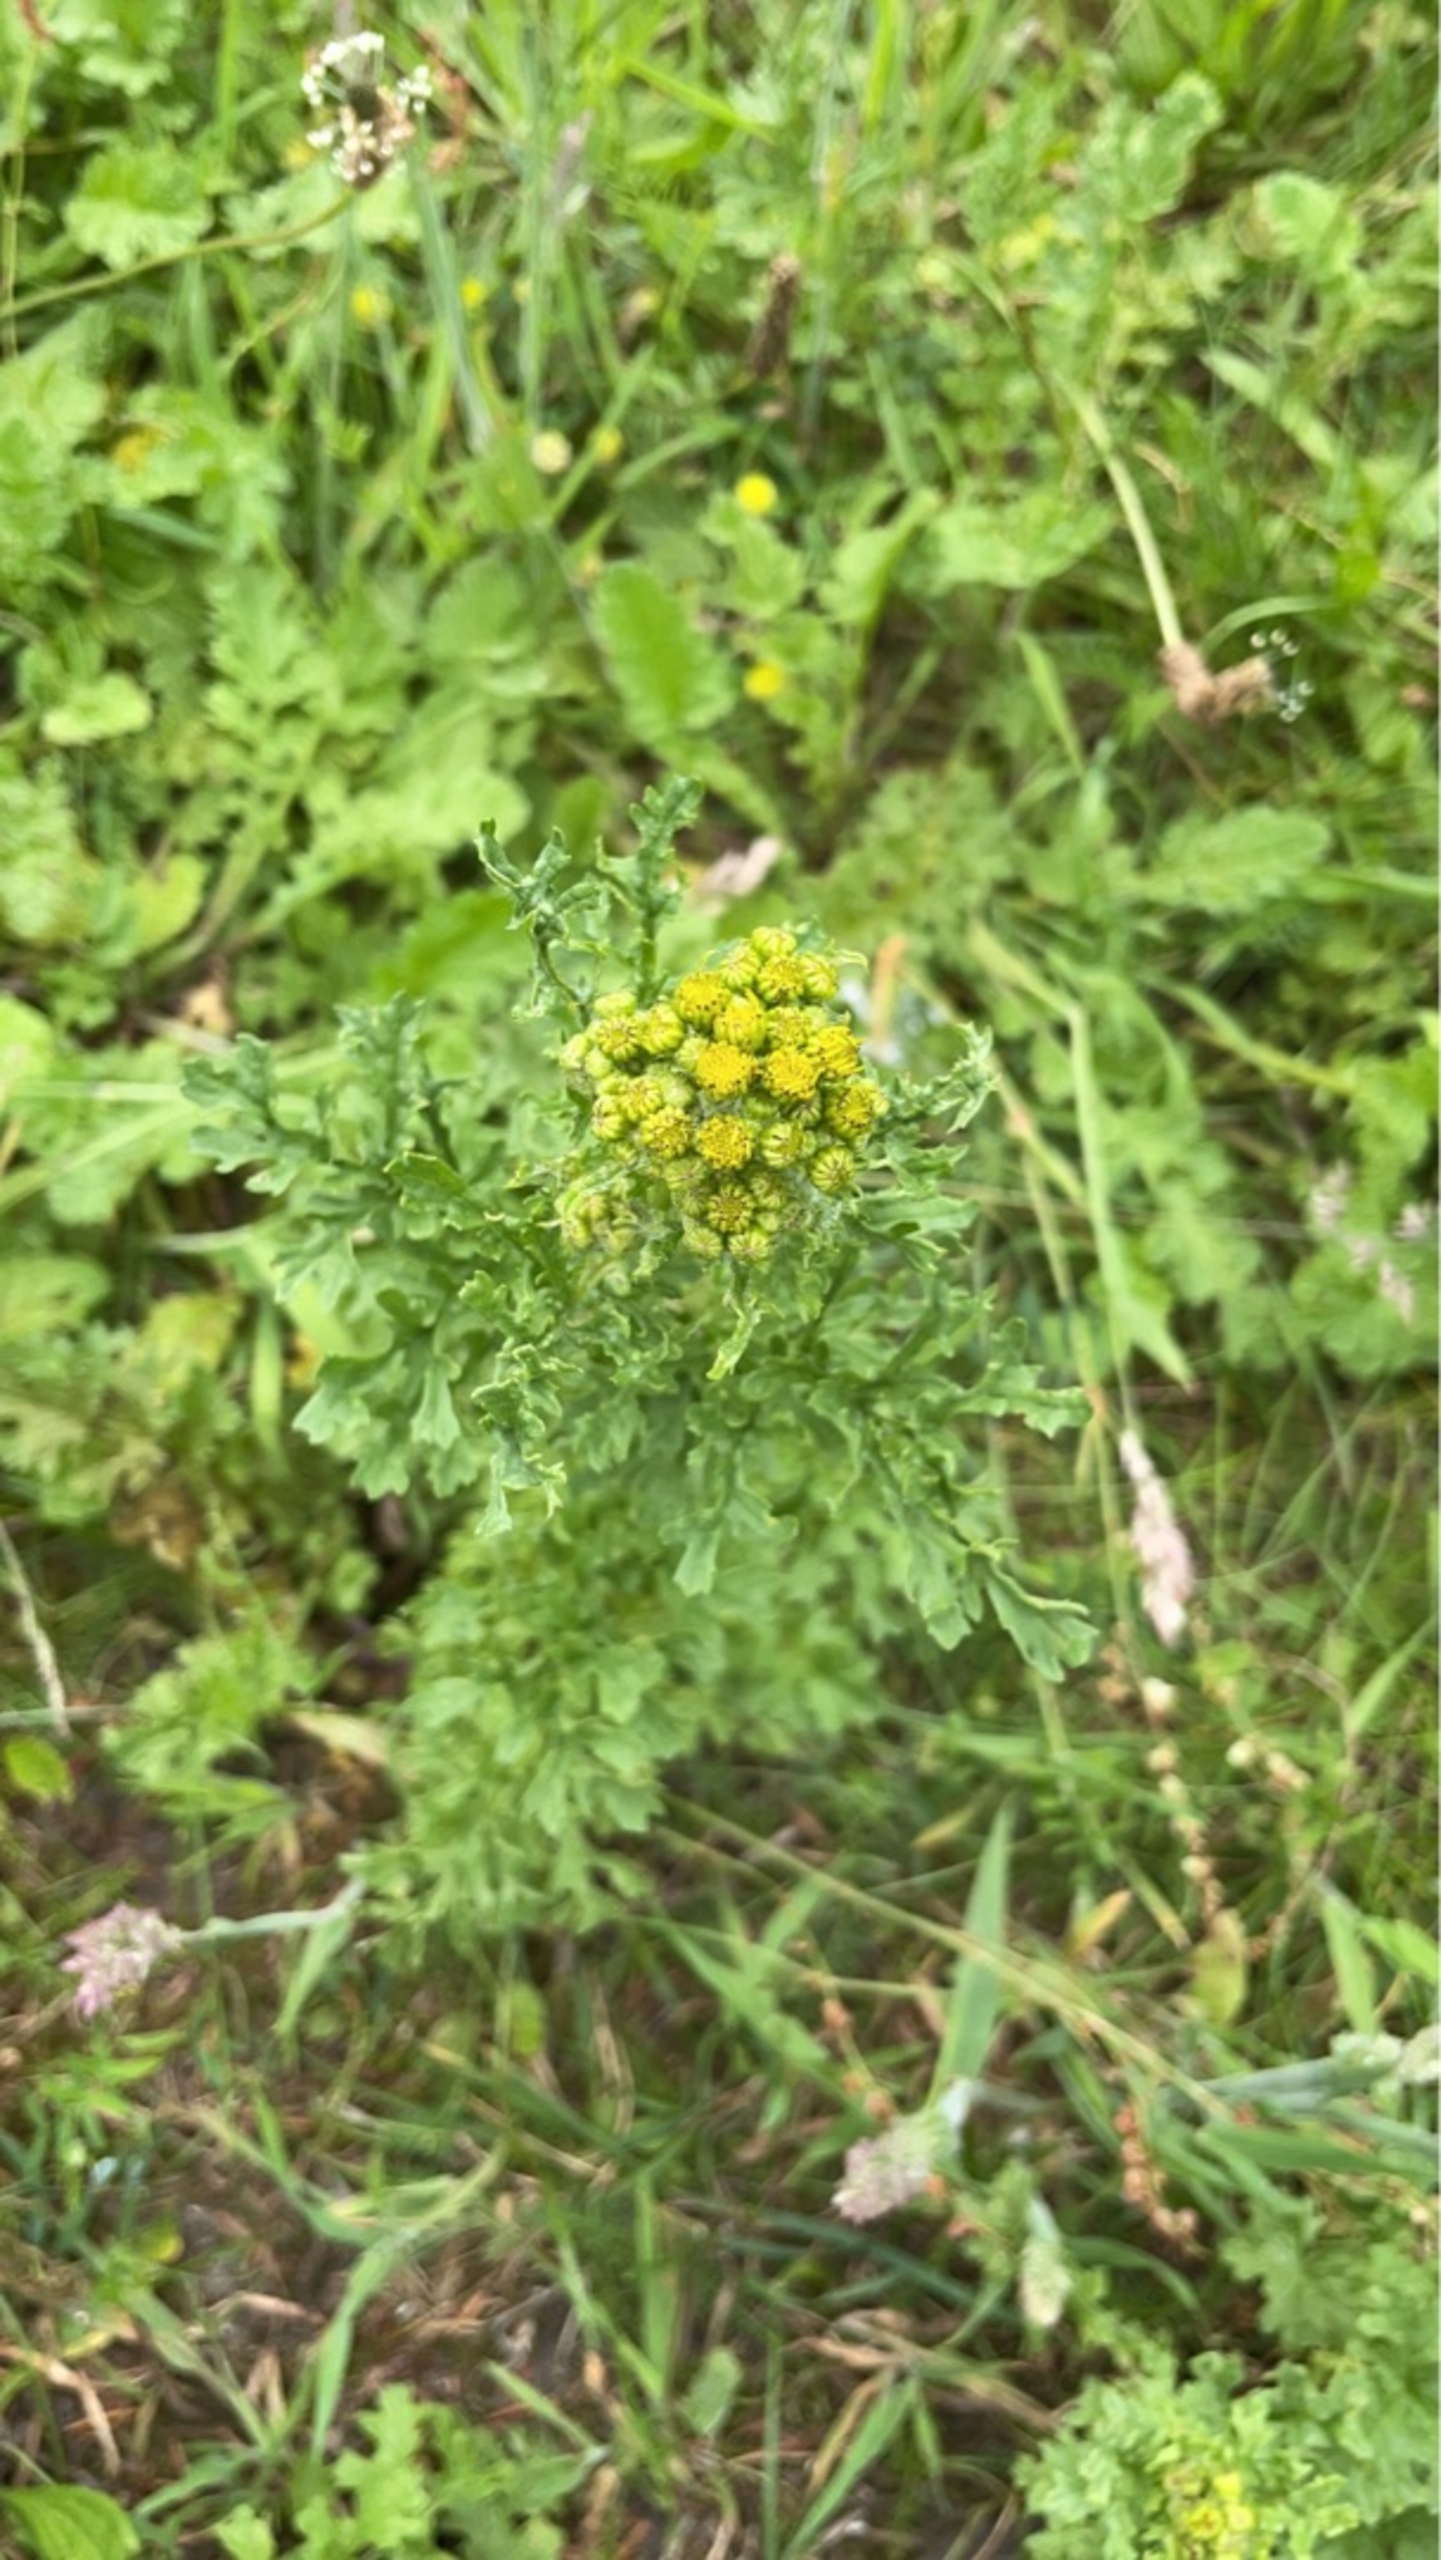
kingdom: Plantae
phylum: Tracheophyta
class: Magnoliopsida
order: Asterales
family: Asteraceae
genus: Jacobaea
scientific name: Jacobaea vulgaris
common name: Eng-brandbæger
